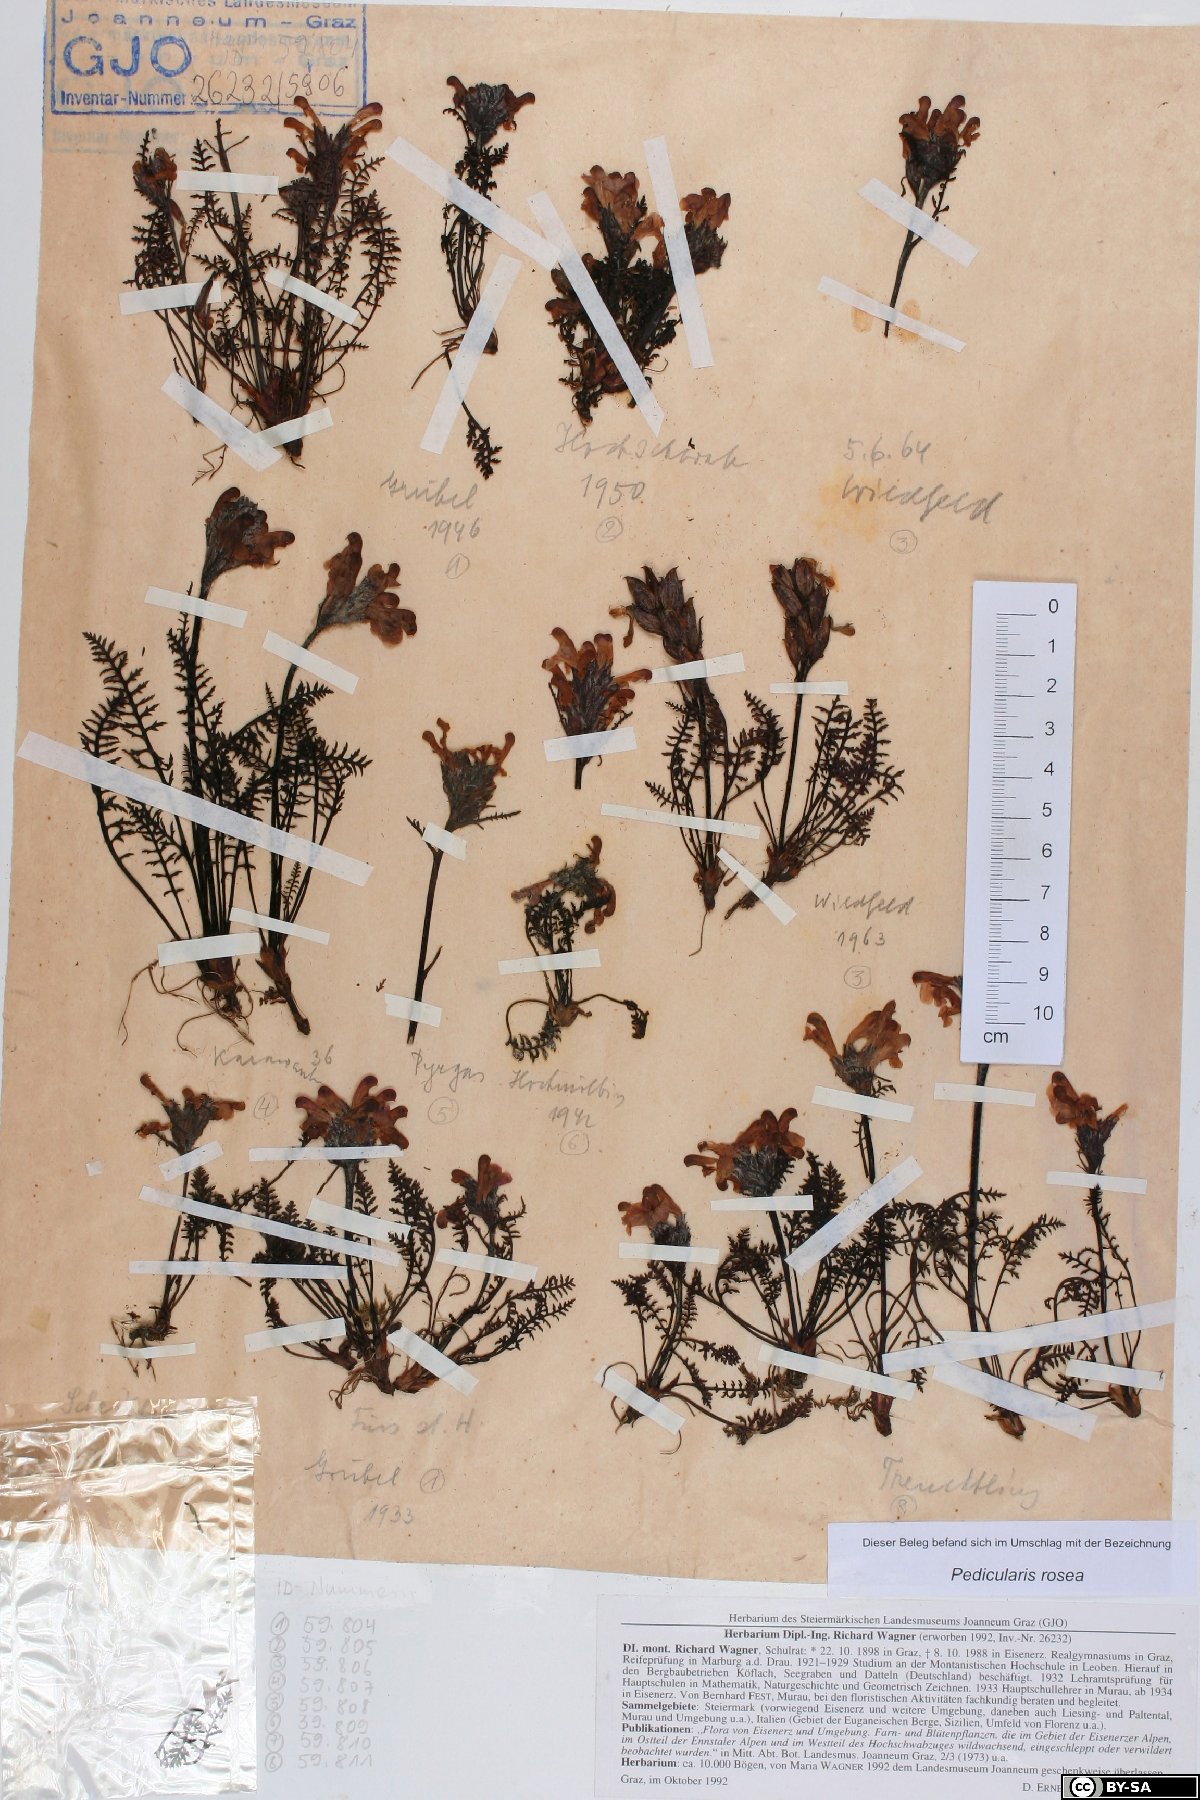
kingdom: Plantae
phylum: Tracheophyta
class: Magnoliopsida
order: Lamiales
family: Orobanchaceae
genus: Pedicularis
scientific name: Pedicularis rosea
